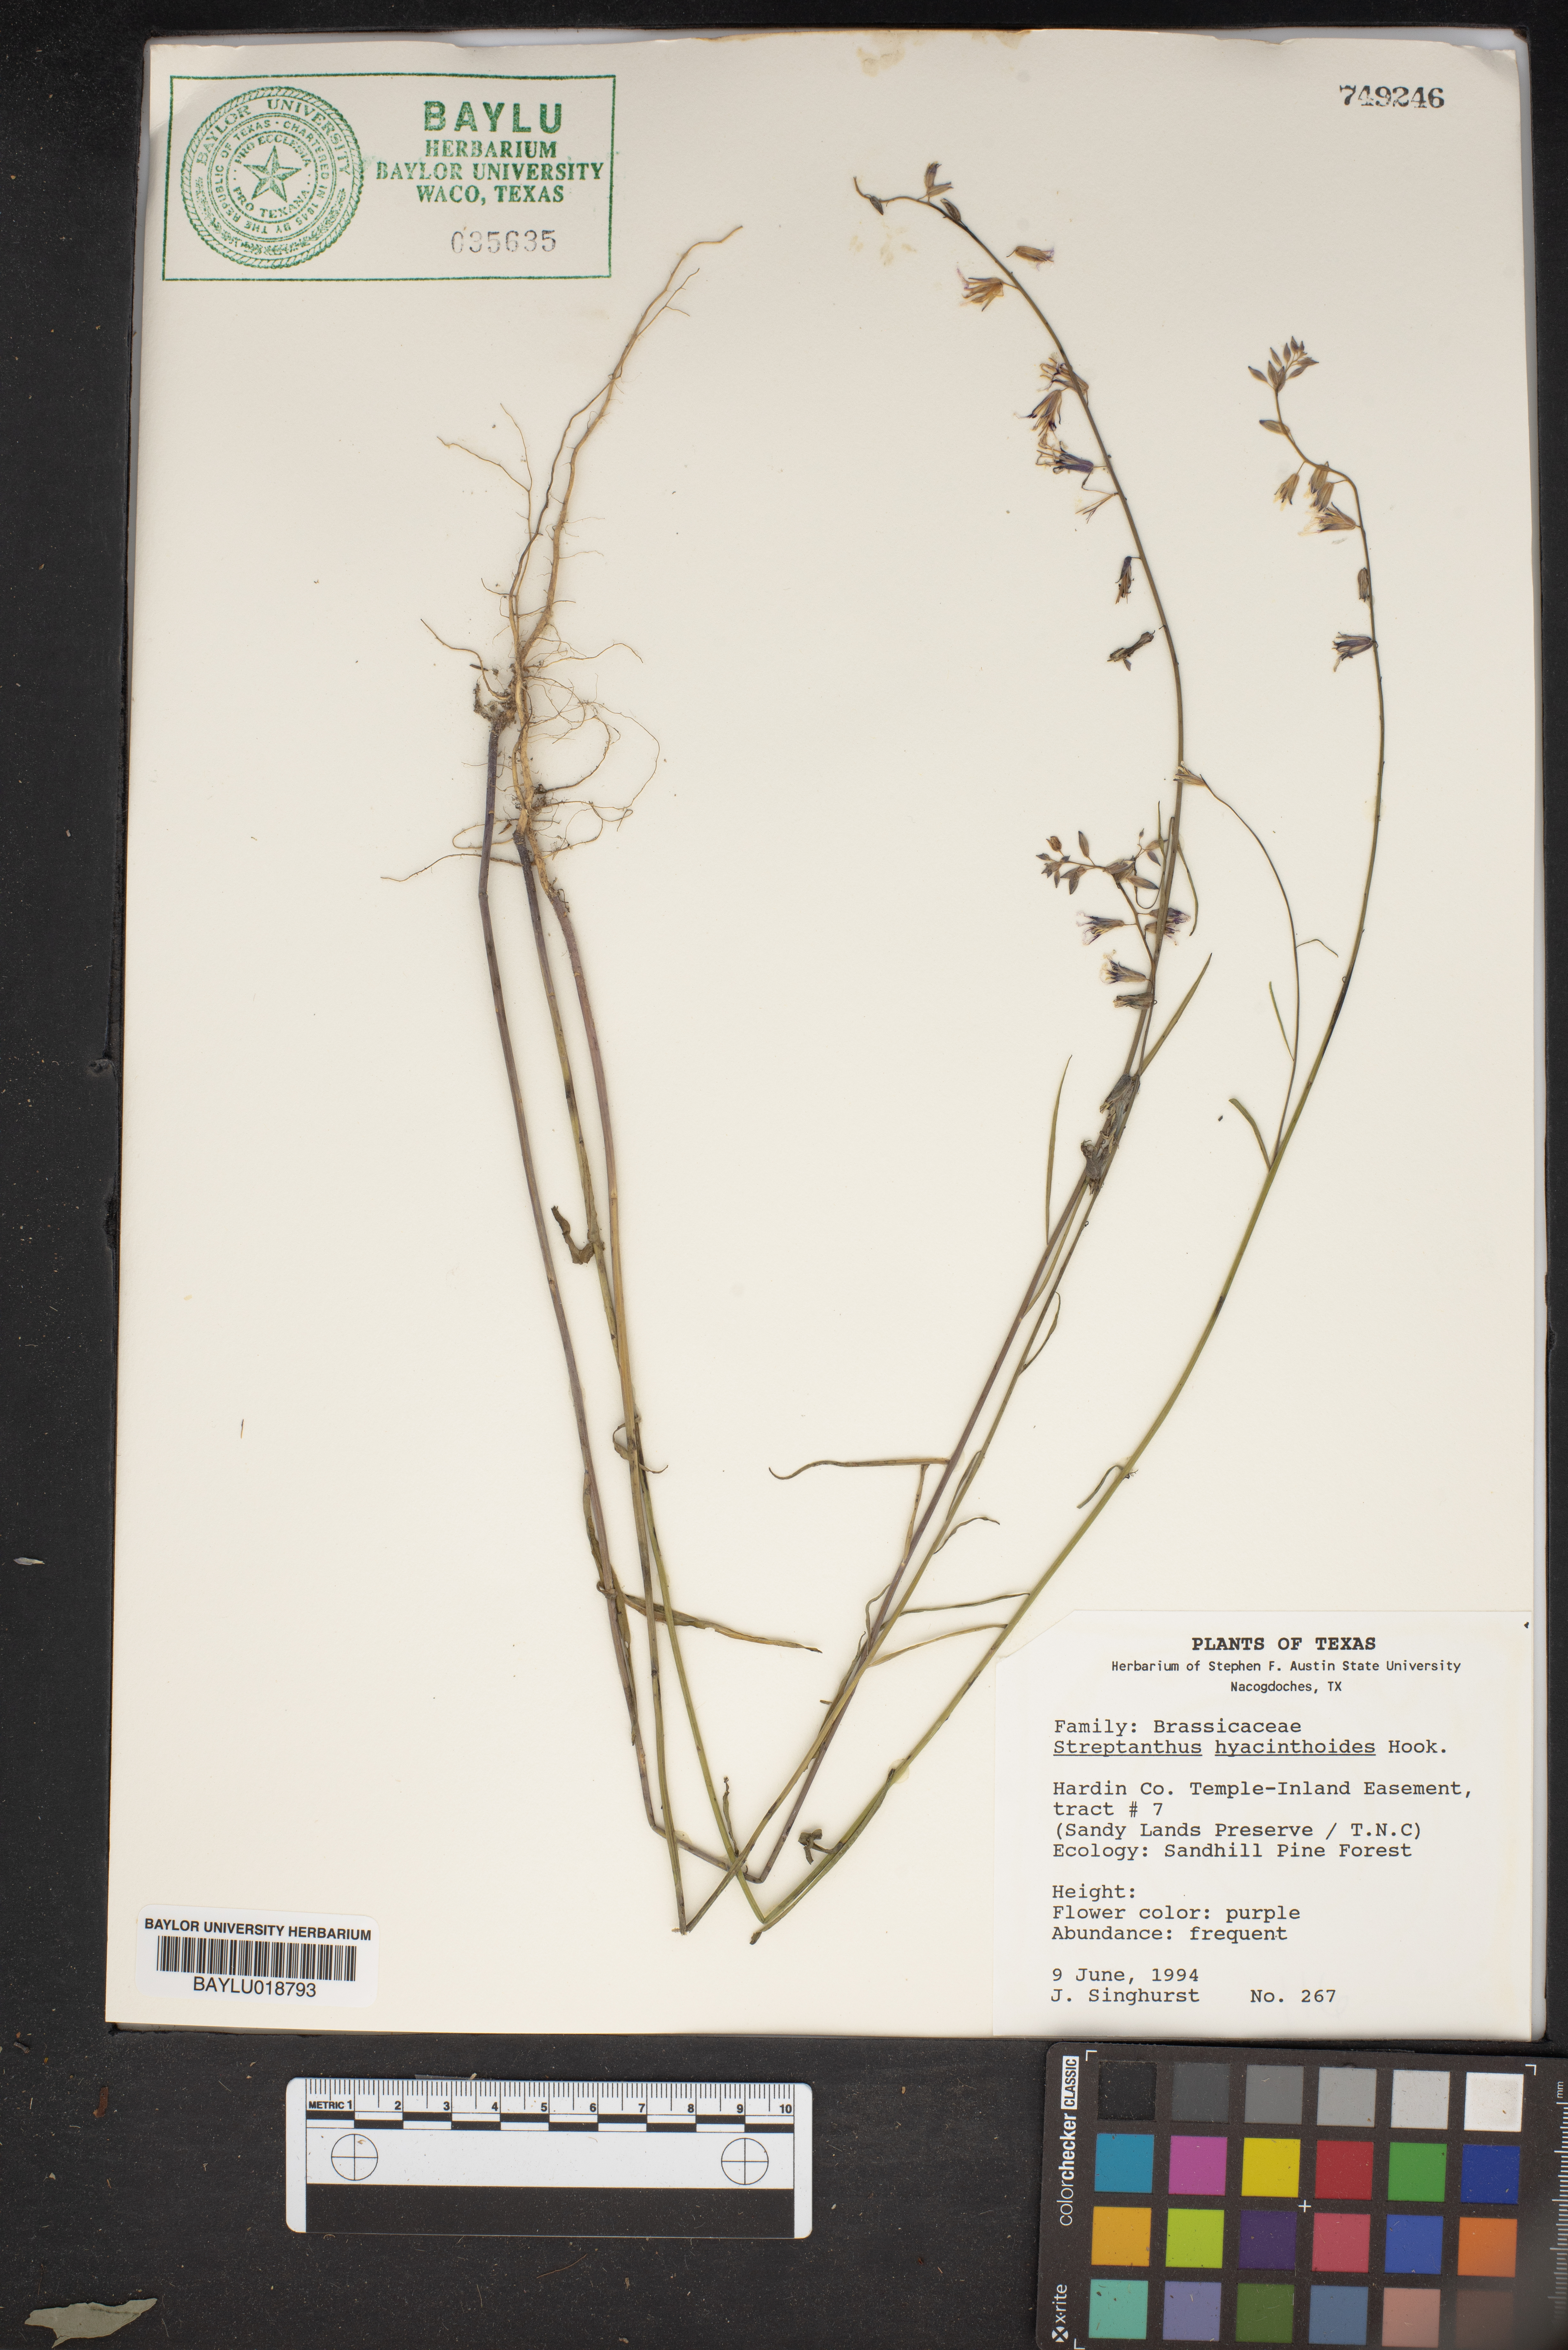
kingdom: Plantae
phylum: Tracheophyta
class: Magnoliopsida
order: Brassicales
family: Brassicaceae
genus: Streptanthus
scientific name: Streptanthus hyacinthoides
